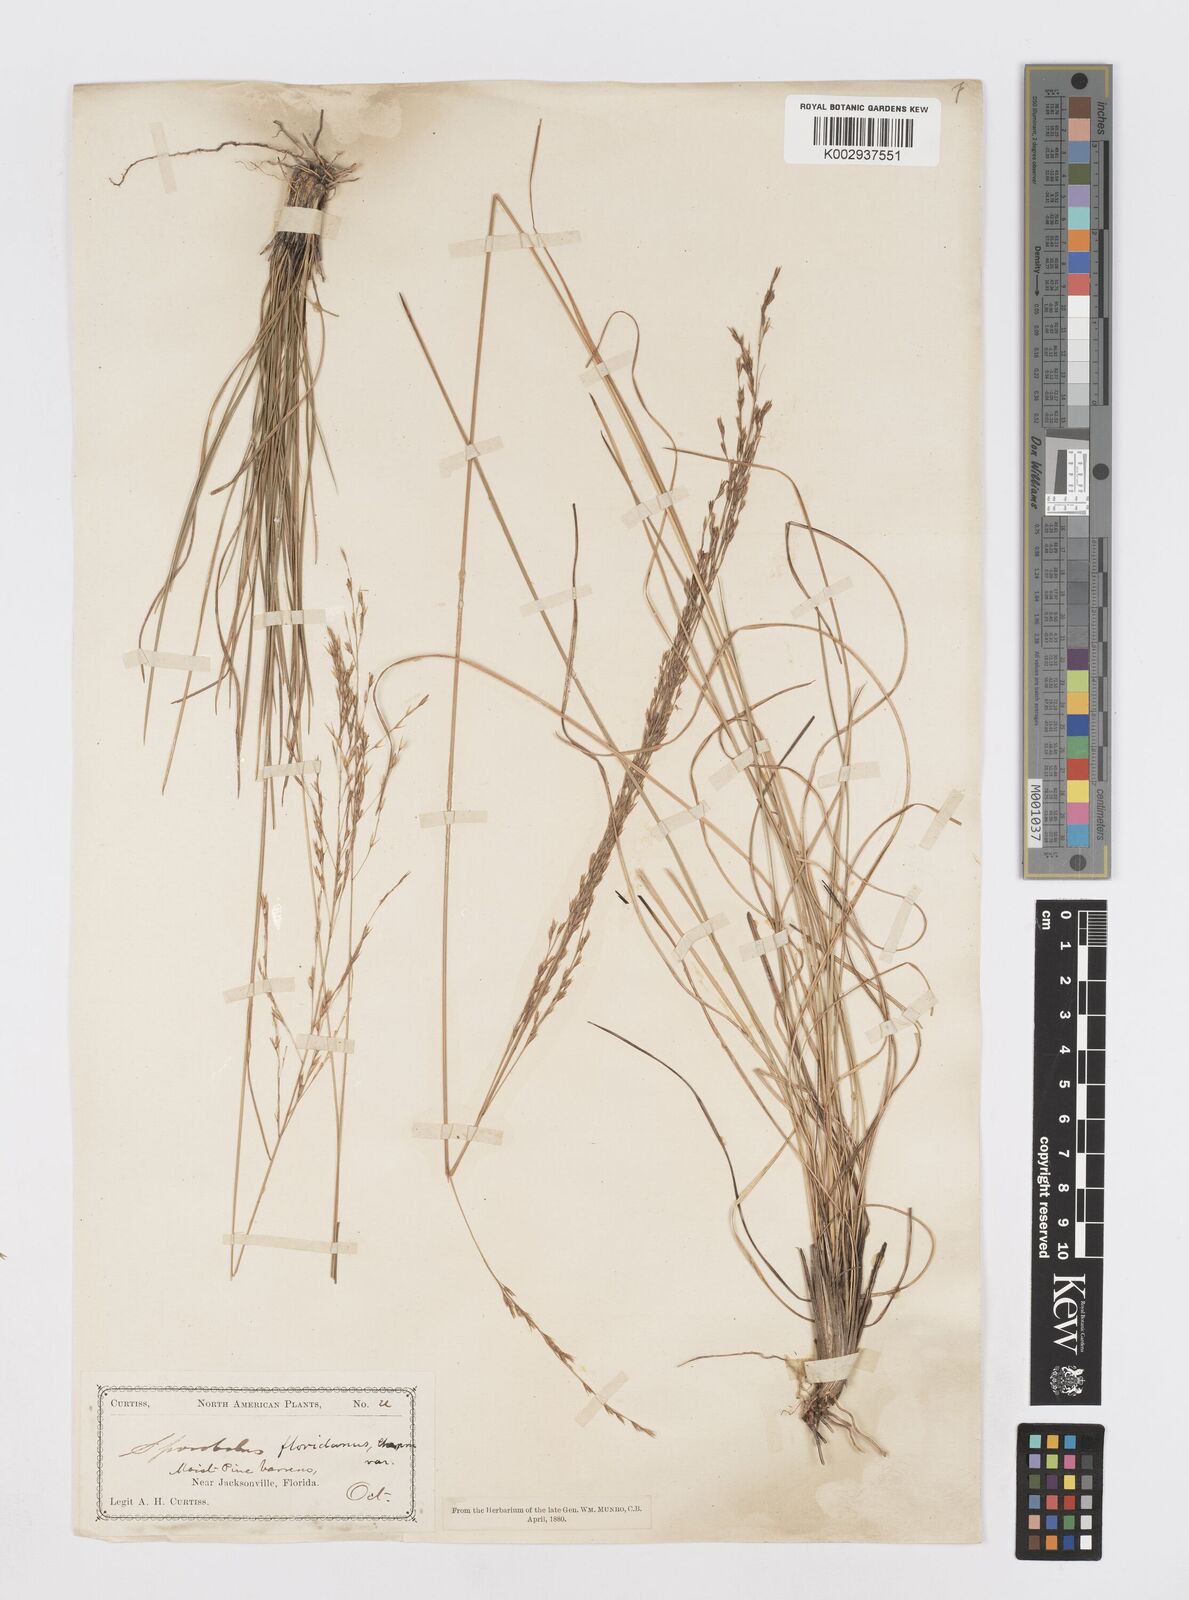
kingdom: Plantae
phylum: Tracheophyta
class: Liliopsida
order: Poales
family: Poaceae
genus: Sporobolus
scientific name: Sporobolus floridanus
